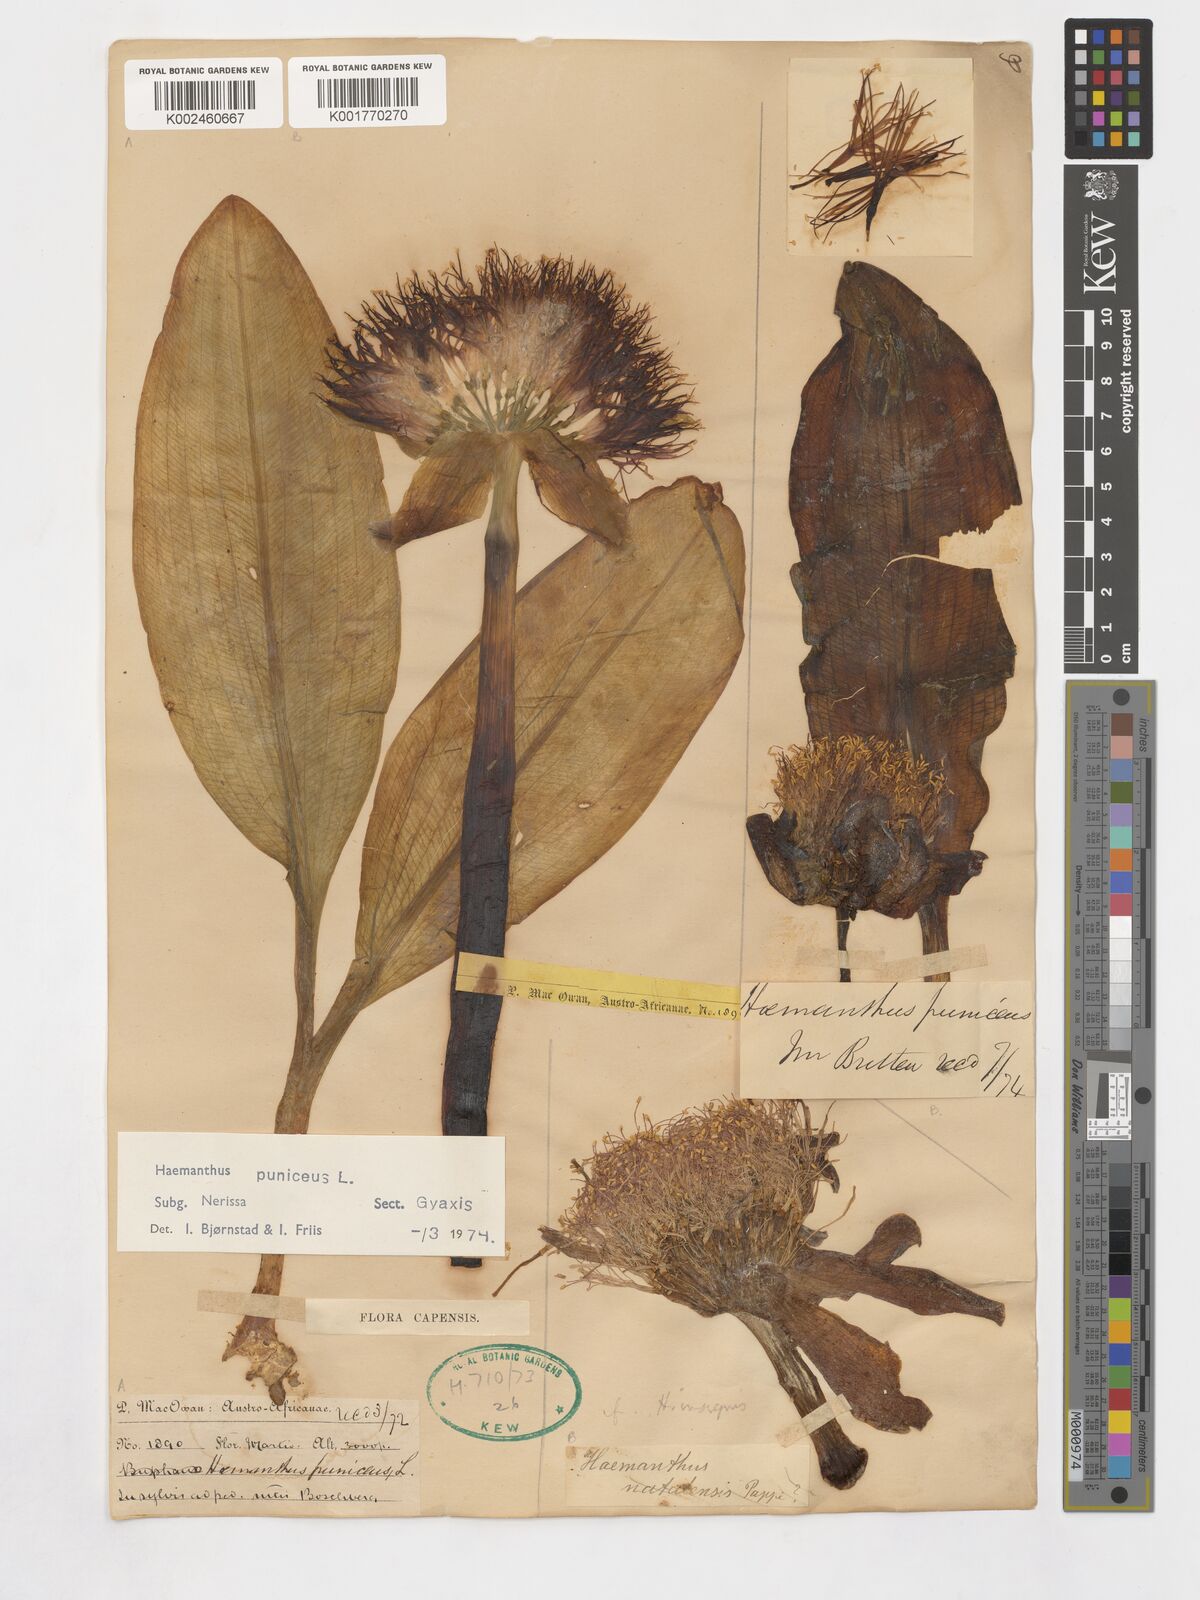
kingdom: Plantae
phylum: Tracheophyta
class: Liliopsida
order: Asparagales
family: Amaryllidaceae
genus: Scadoxus
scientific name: Scadoxus puniceus
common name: Royal-paintbrush
